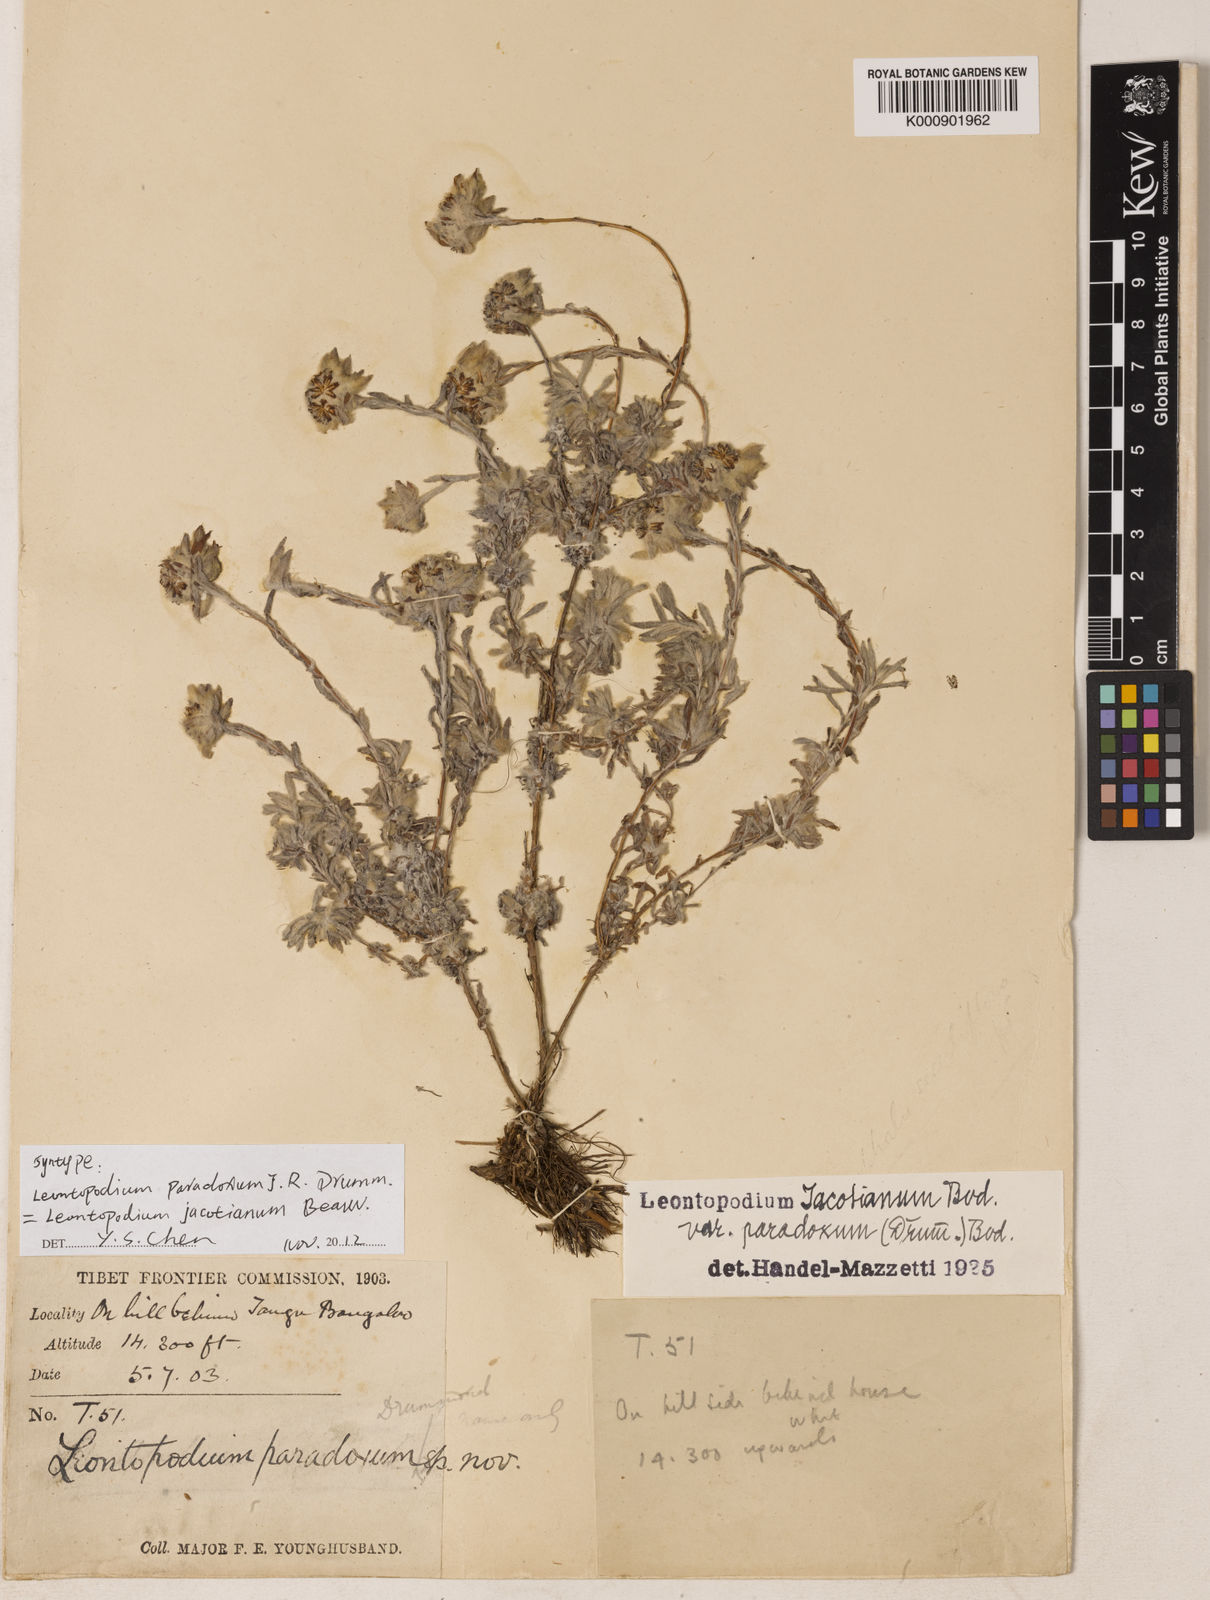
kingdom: Plantae
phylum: Tracheophyta
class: Magnoliopsida
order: Asterales
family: Asteraceae
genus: Leontopodium
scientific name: Leontopodium jacotianum
